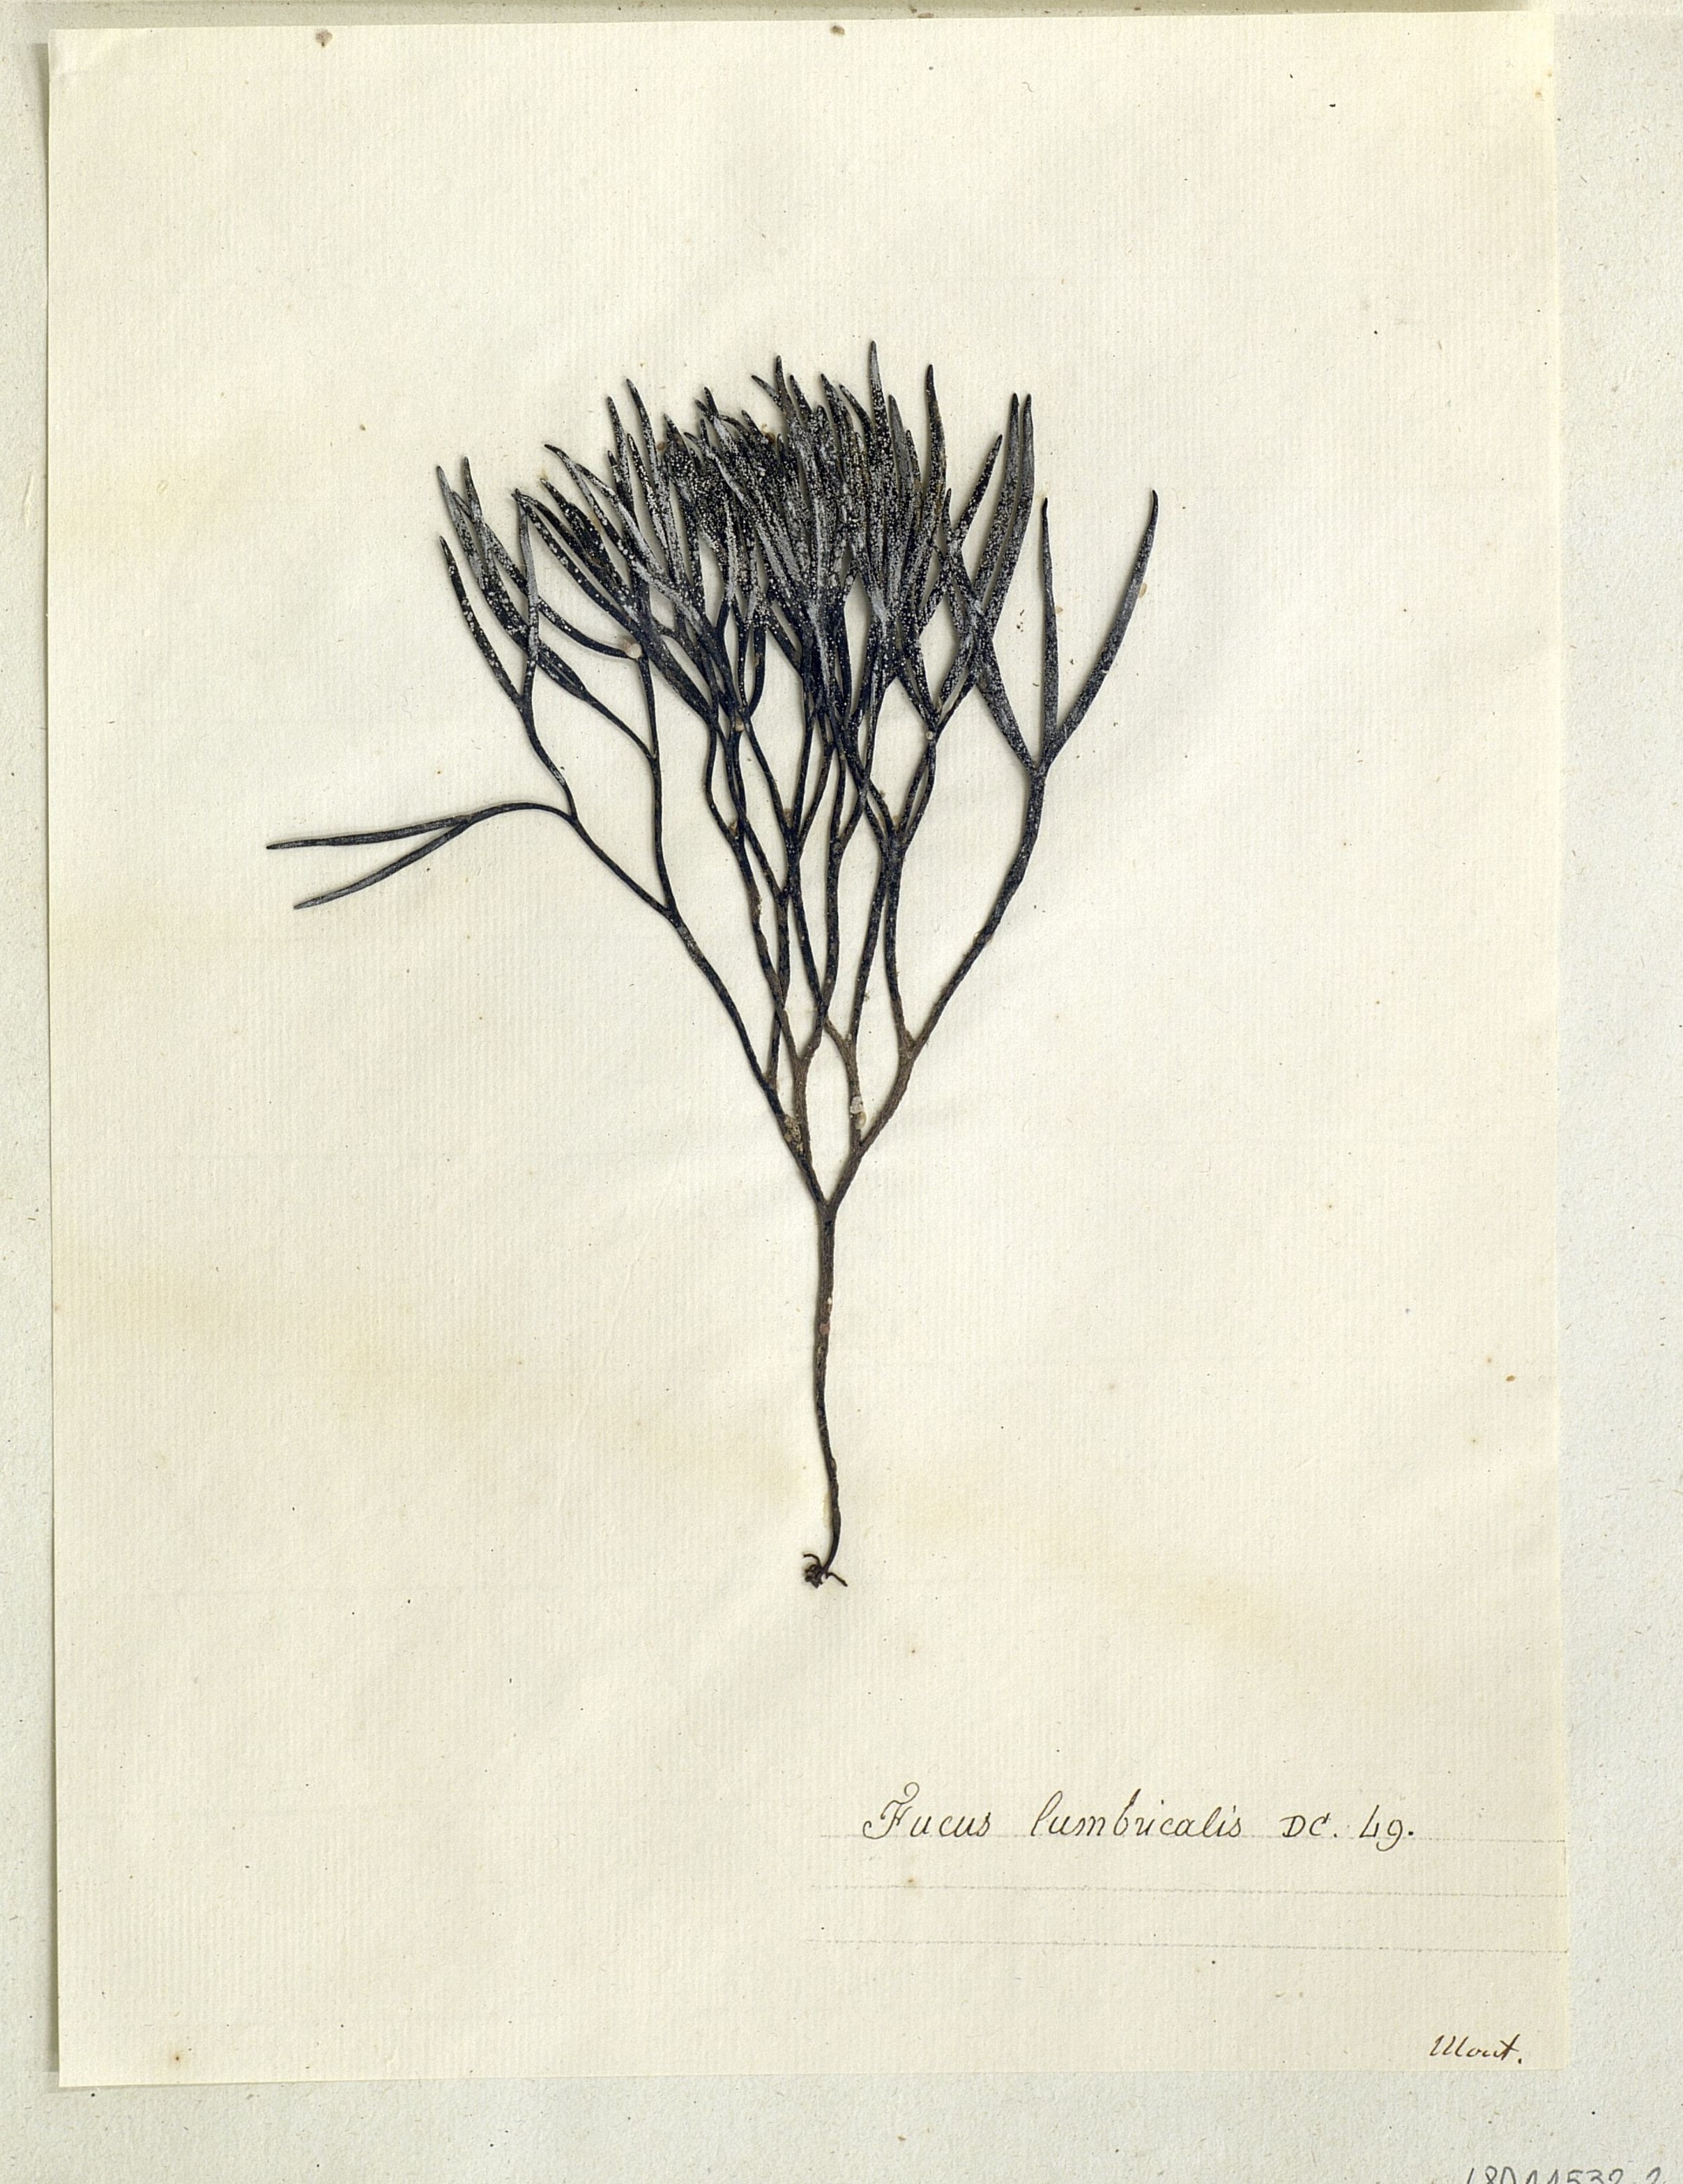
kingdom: Chromista
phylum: Ochrophyta
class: Phaeophyceae
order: Fucales
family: Fucaceae
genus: Fucus
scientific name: Fucus
